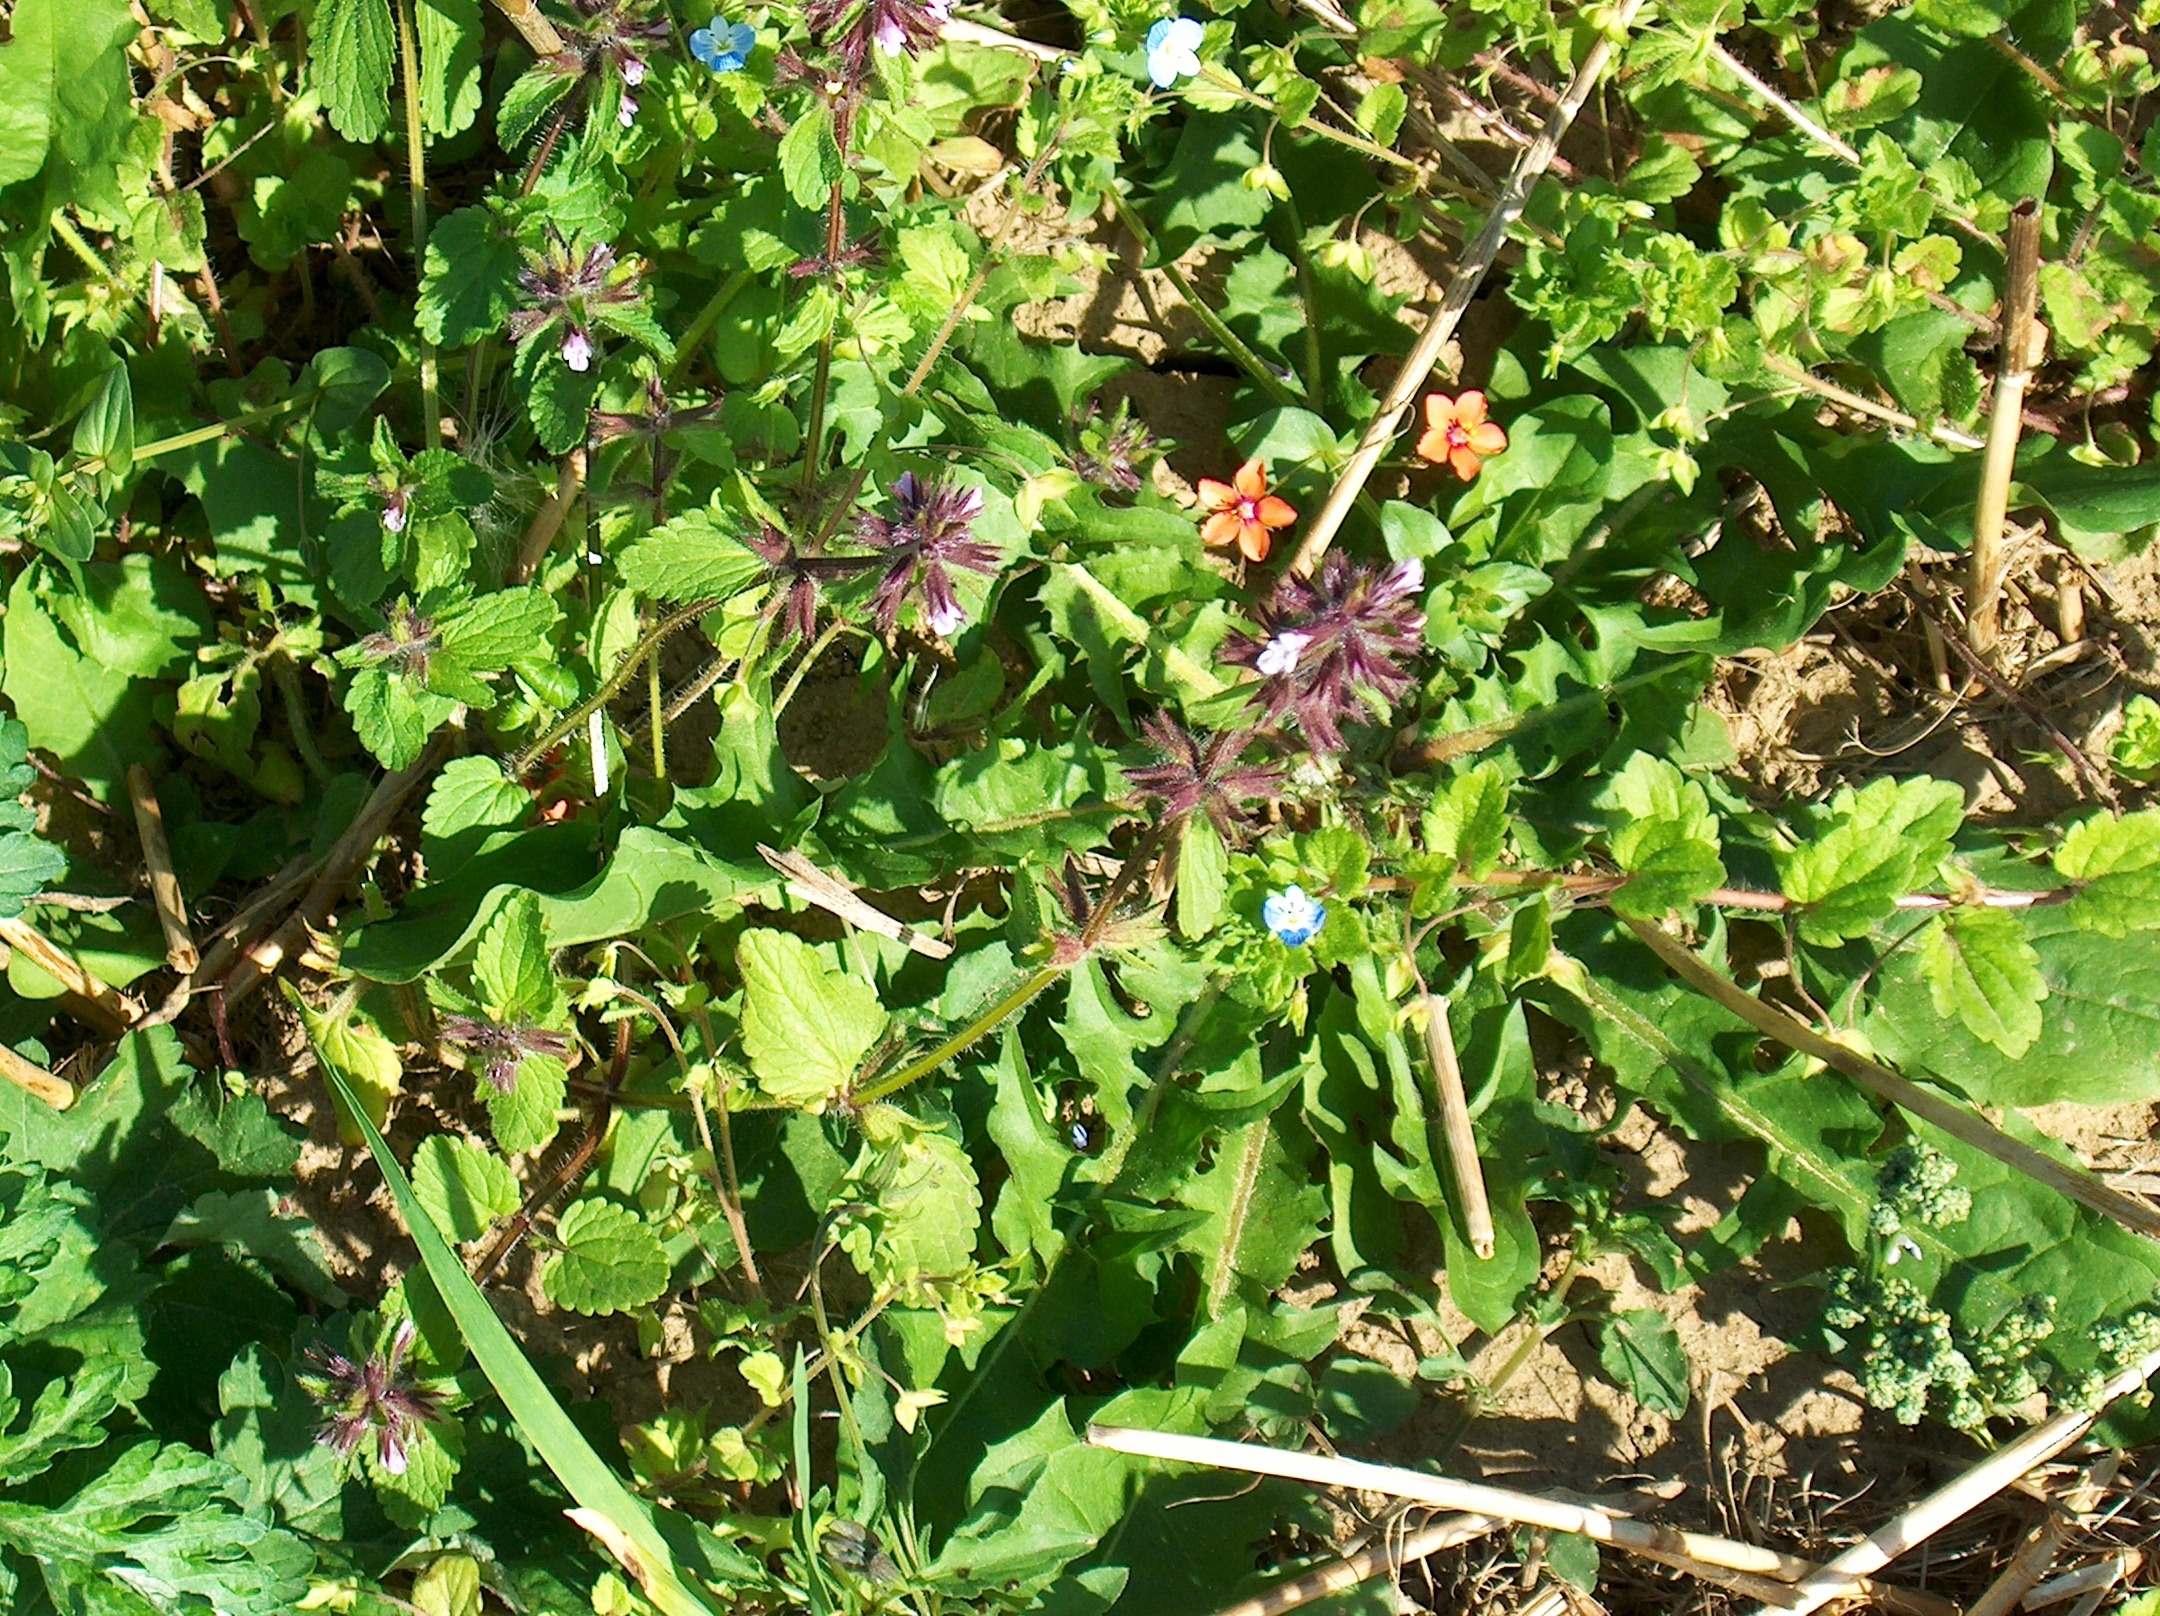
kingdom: Plantae
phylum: Tracheophyta
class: Magnoliopsida
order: Lamiales
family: Lamiaceae
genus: Stachys
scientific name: Stachys arvensis
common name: Ager-galtetand
